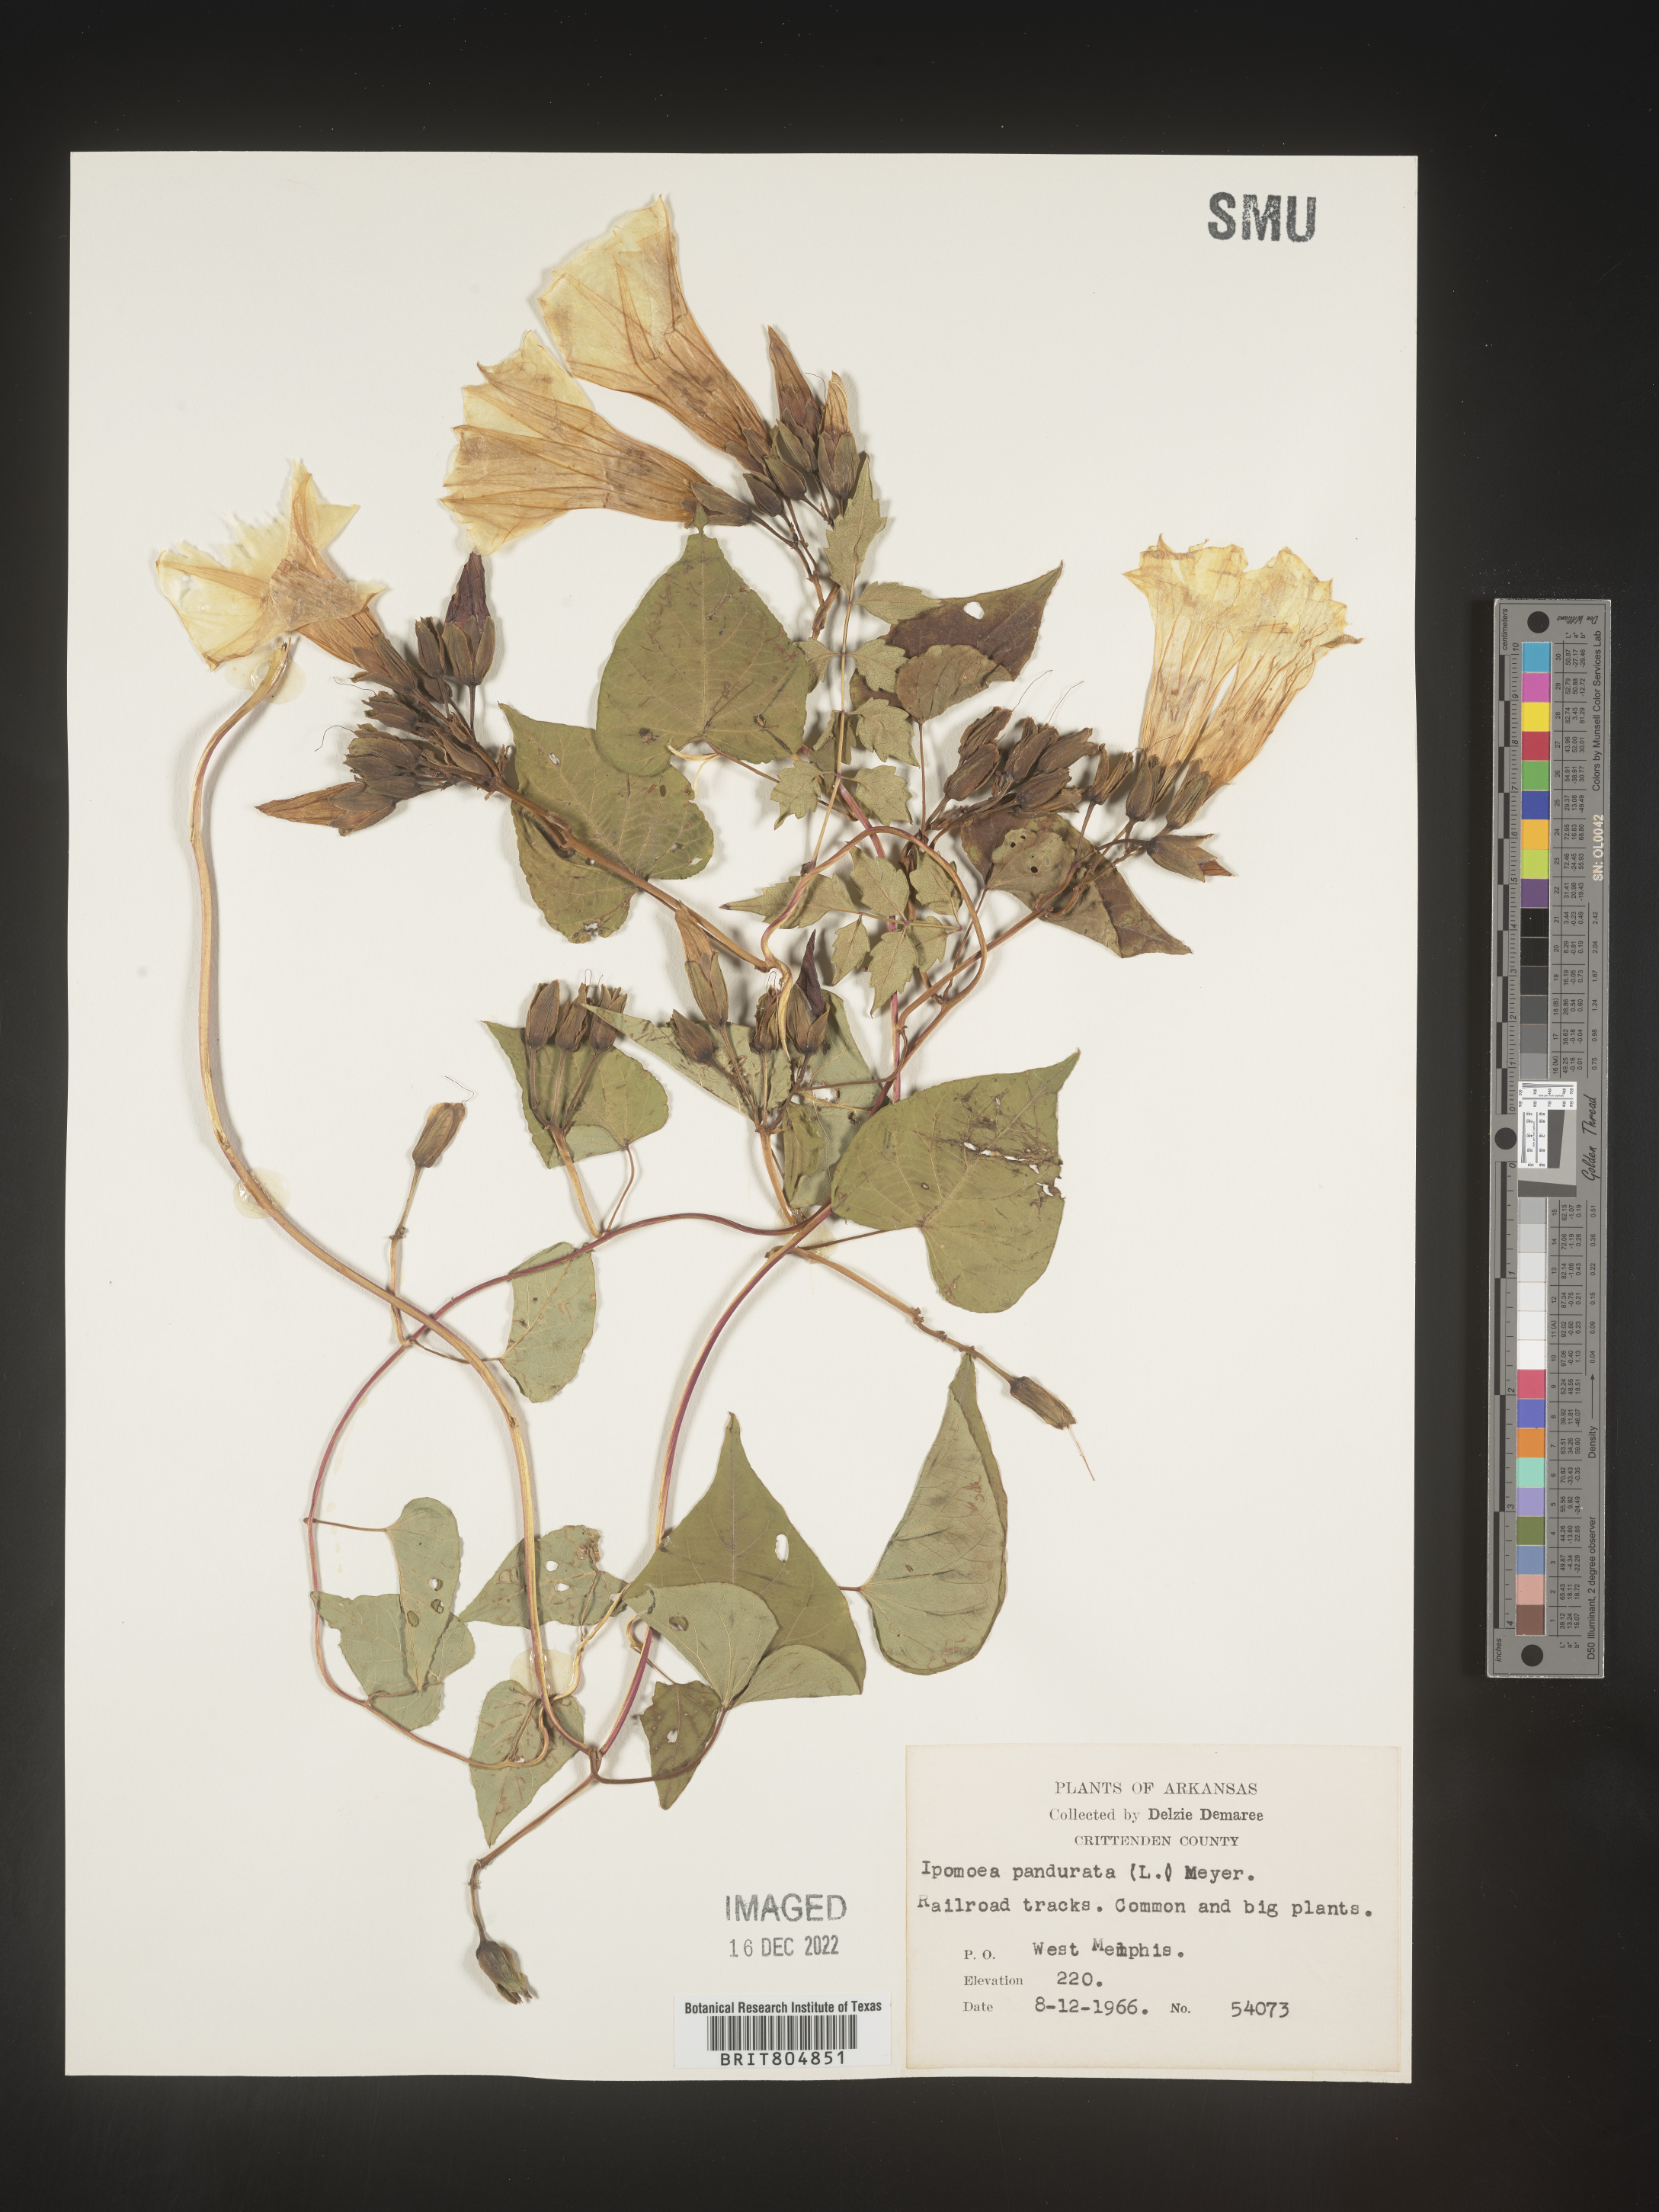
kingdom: Plantae
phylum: Tracheophyta
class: Magnoliopsida
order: Solanales
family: Convolvulaceae
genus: Ipomoea
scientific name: Ipomoea pandurata
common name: Man-of-the-earth
